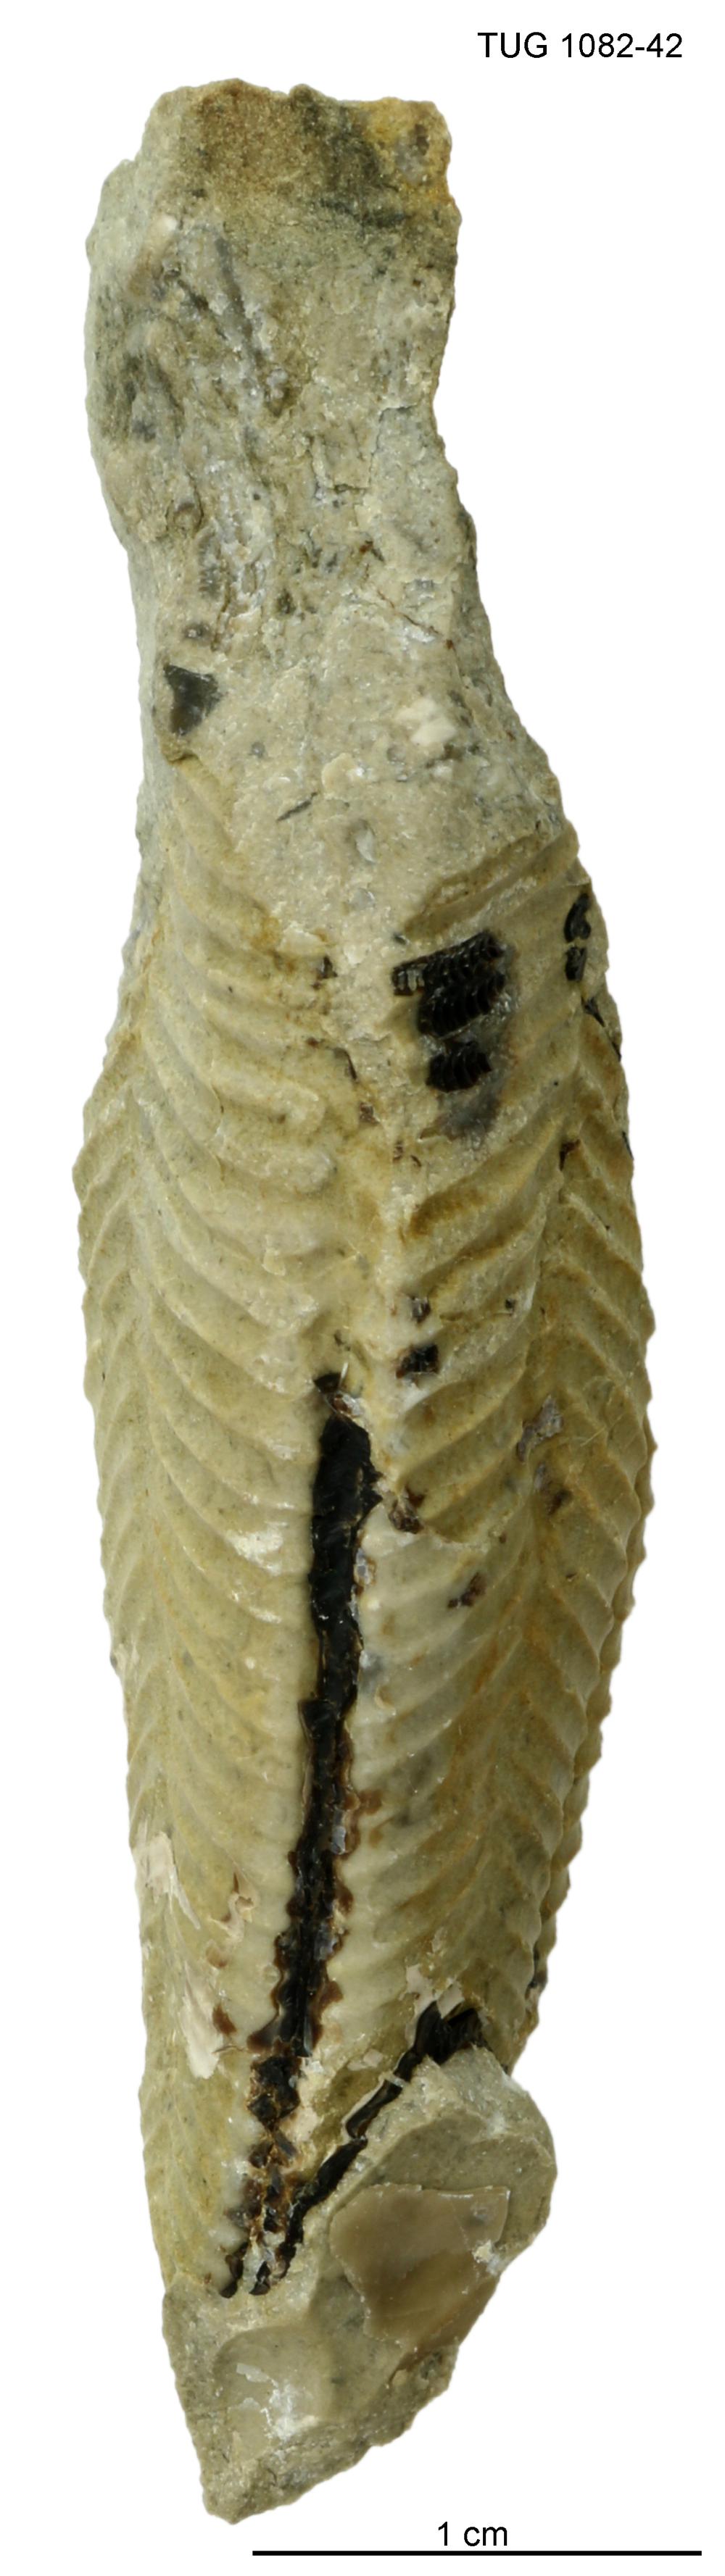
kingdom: Animalia
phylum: Cnidaria
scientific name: Cnidaria
